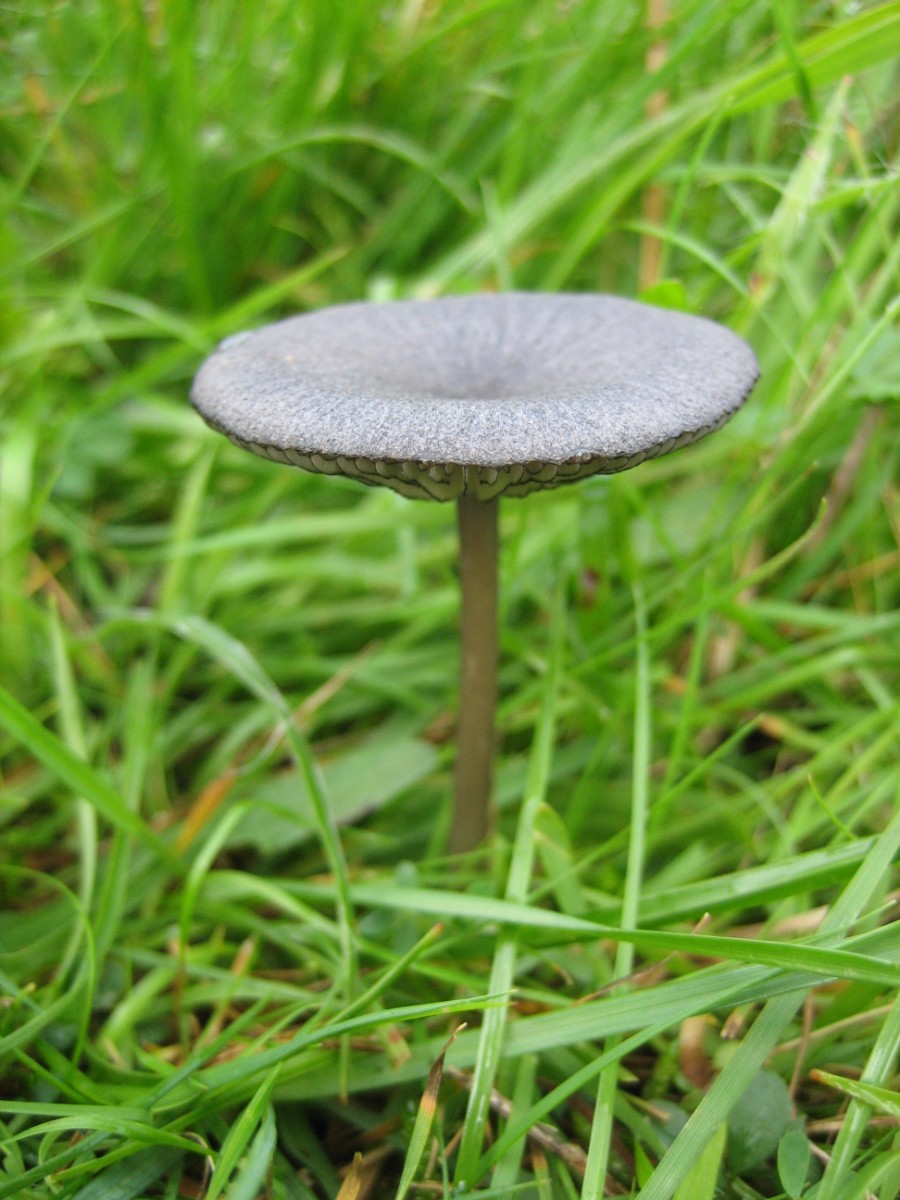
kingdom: Fungi
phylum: Basidiomycota
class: Agaricomycetes
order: Agaricales
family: Entolomataceae
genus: Entoloma
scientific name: Entoloma
